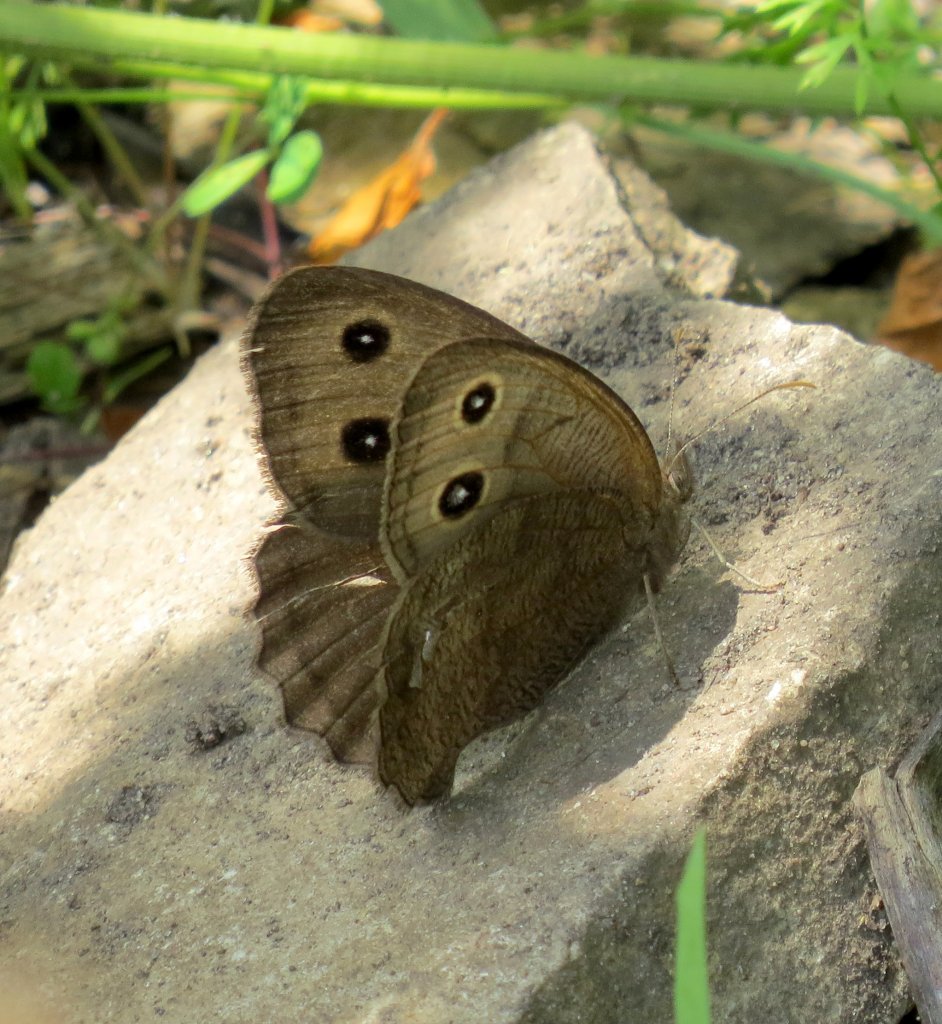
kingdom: Animalia
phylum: Arthropoda
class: Insecta
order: Lepidoptera
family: Nymphalidae
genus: Cercyonis
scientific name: Cercyonis pegala
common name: Common Wood-Nymph
